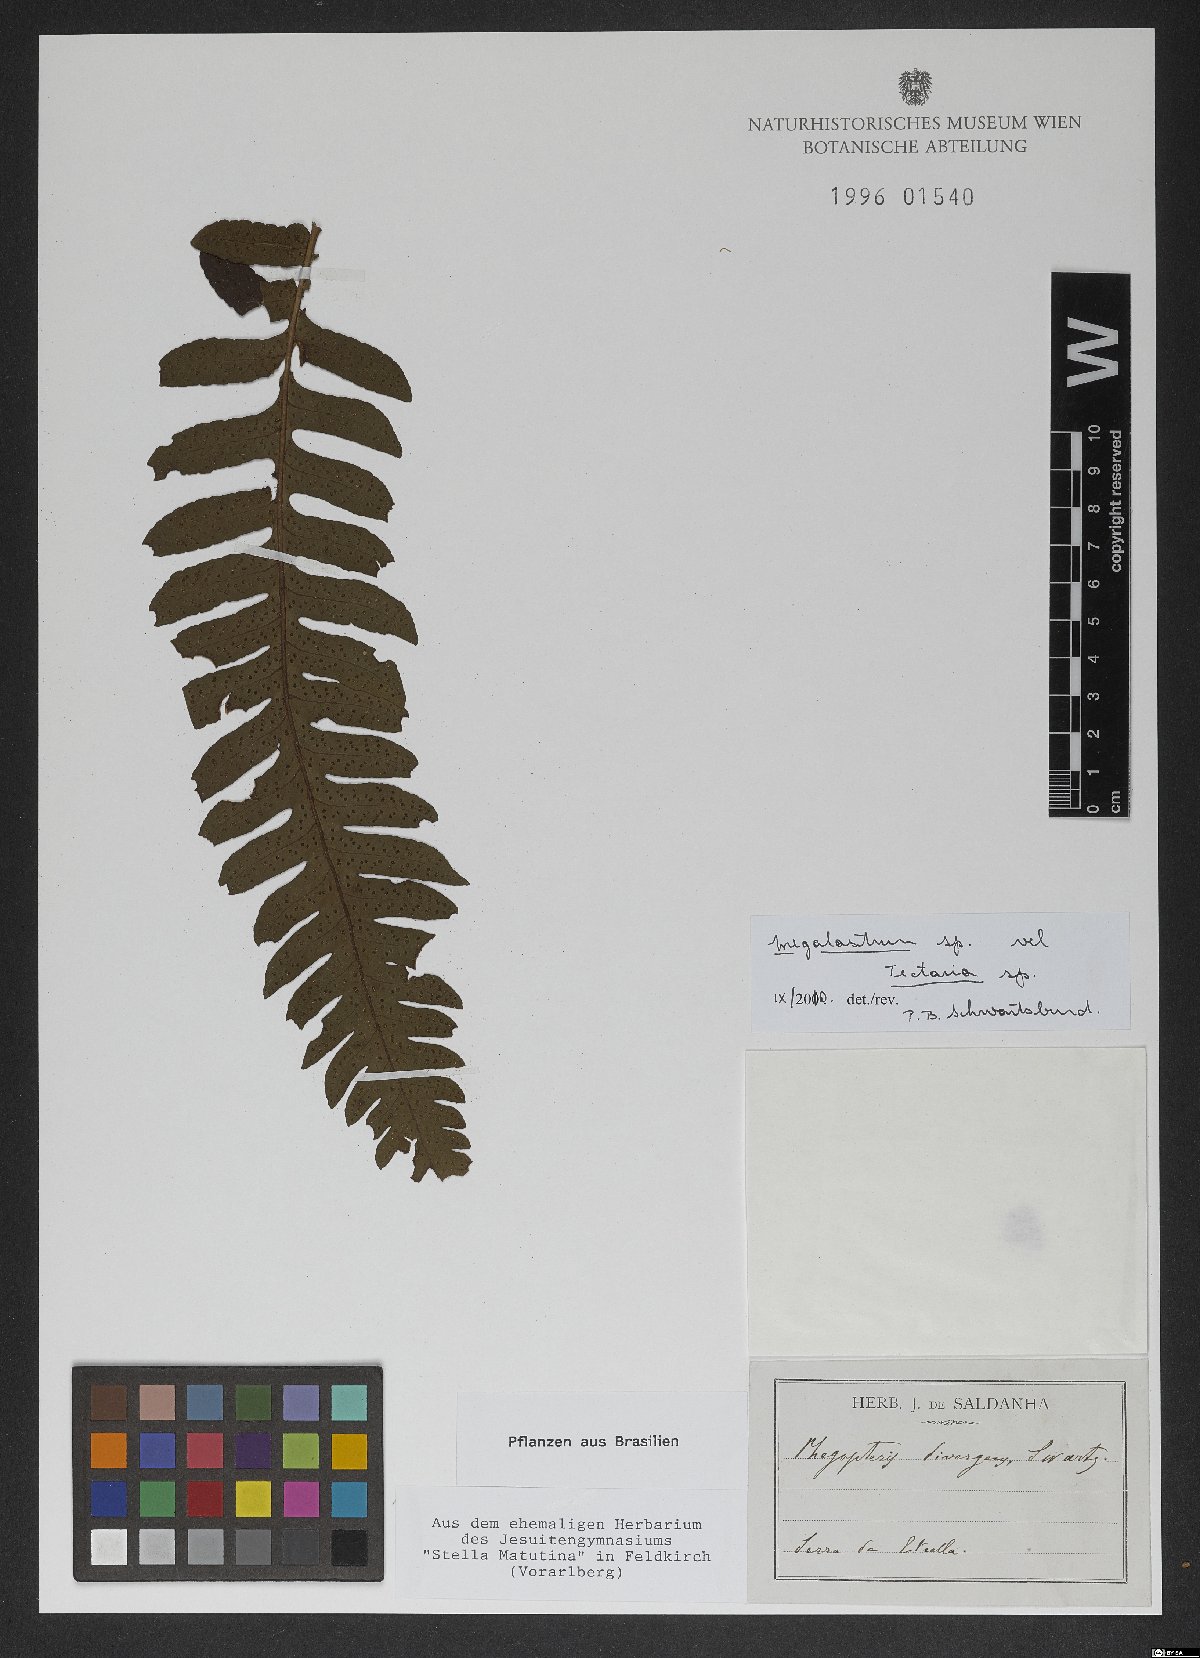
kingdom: Plantae
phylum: Tracheophyta
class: Polypodiopsida
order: Polypodiales
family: Dryopteridaceae
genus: Megalastrum
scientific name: Megalastrum inaequale
